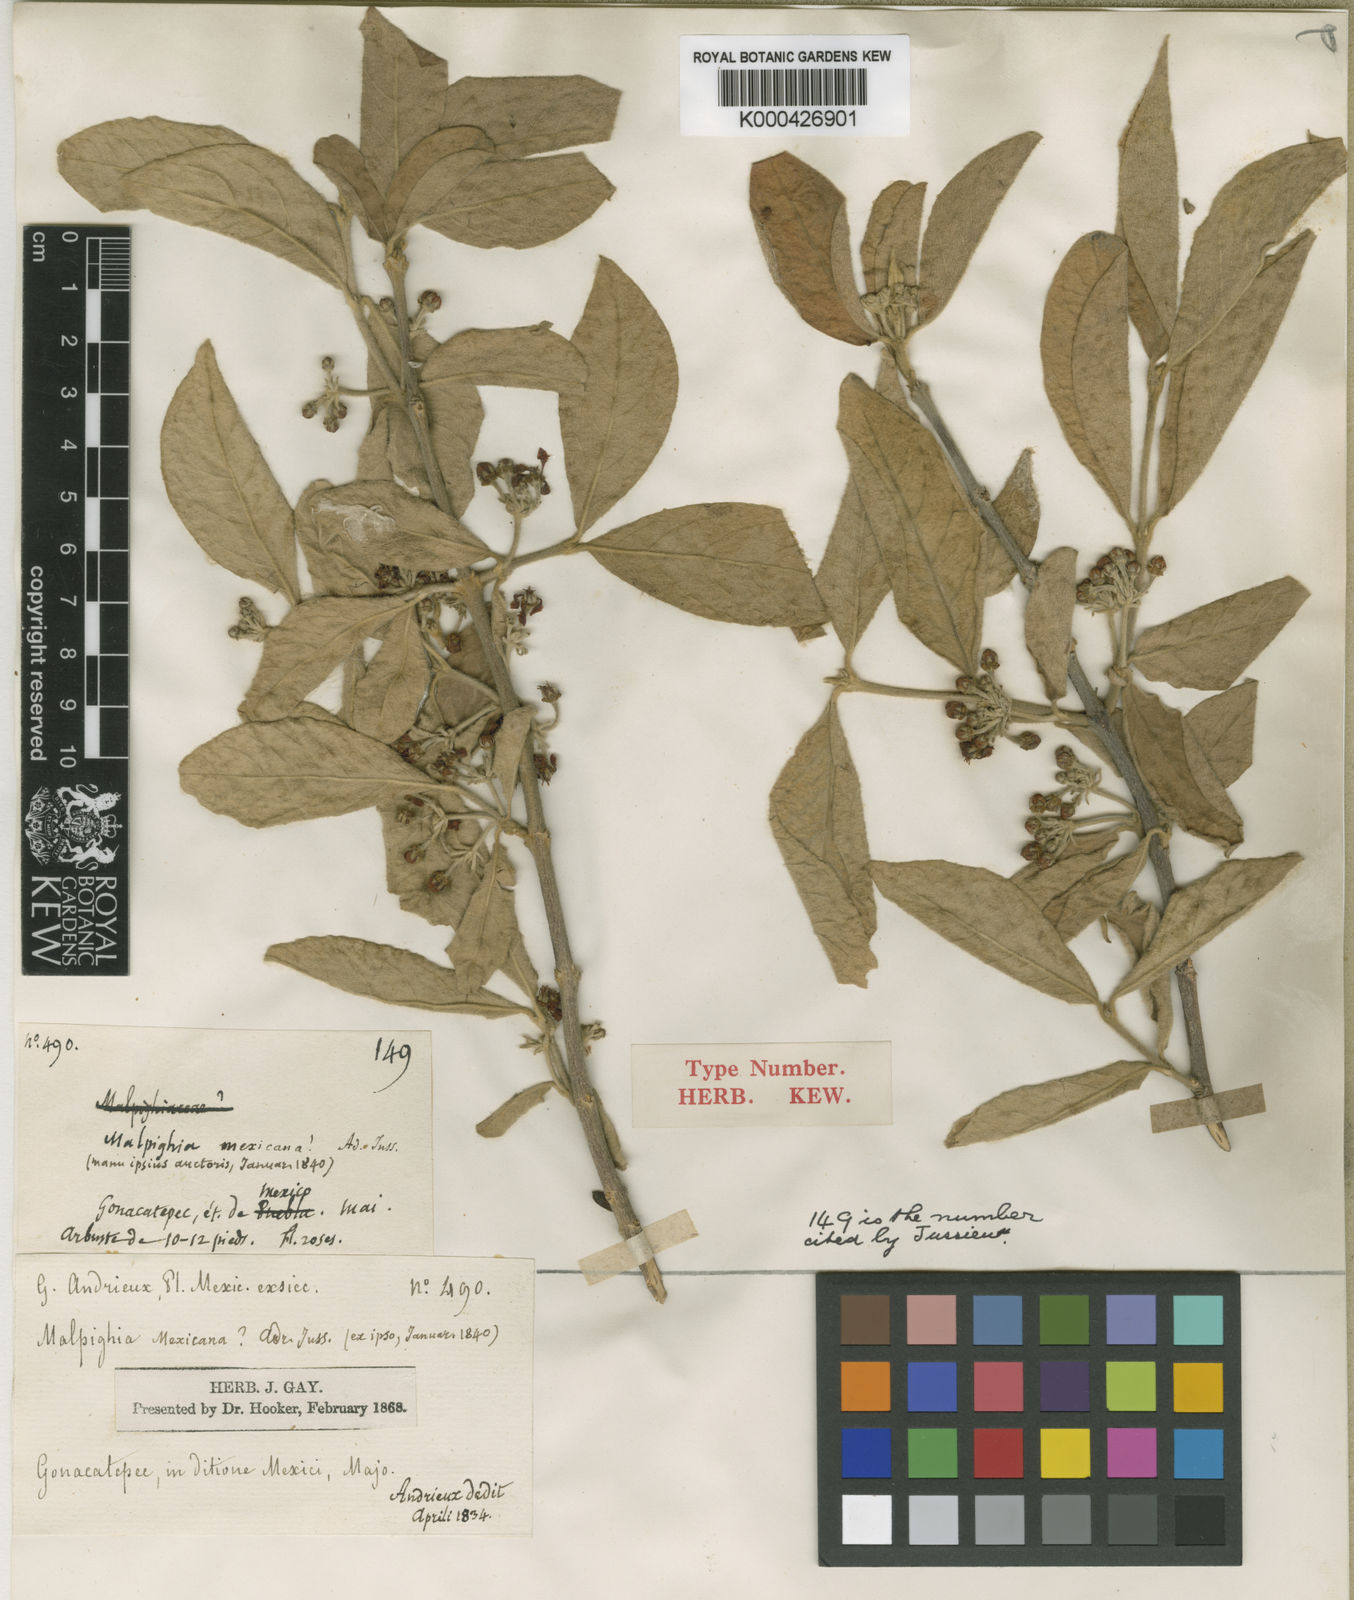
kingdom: Plantae
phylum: Tracheophyta
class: Magnoliopsida
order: Malpighiales
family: Malpighiaceae
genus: Malpighia
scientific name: Malpighia mexicana
